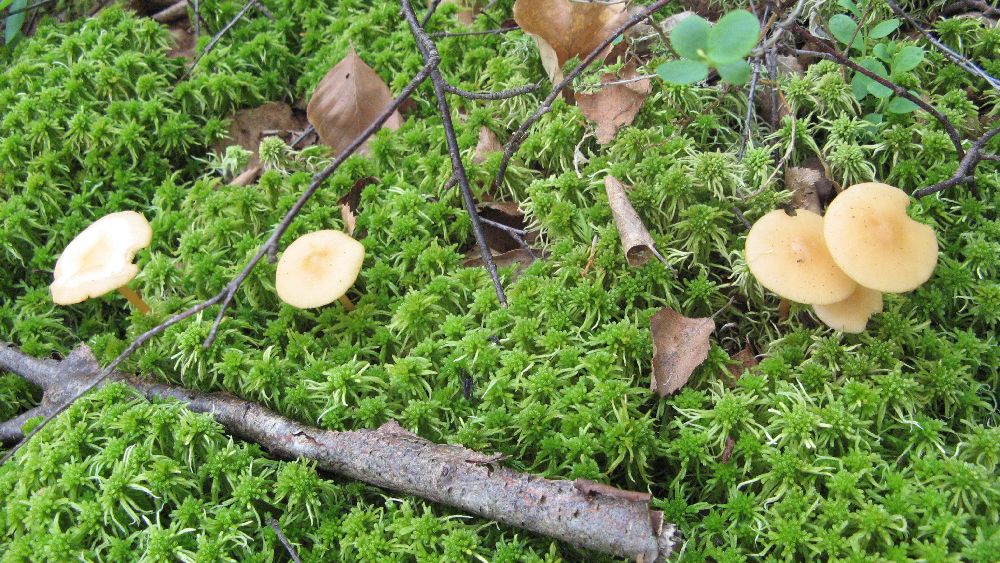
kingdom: Fungi
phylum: Basidiomycota
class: Agaricomycetes
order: Agaricales
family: Omphalotaceae
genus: Gymnopus
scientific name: Gymnopus aquosus
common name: bleg fladhat
